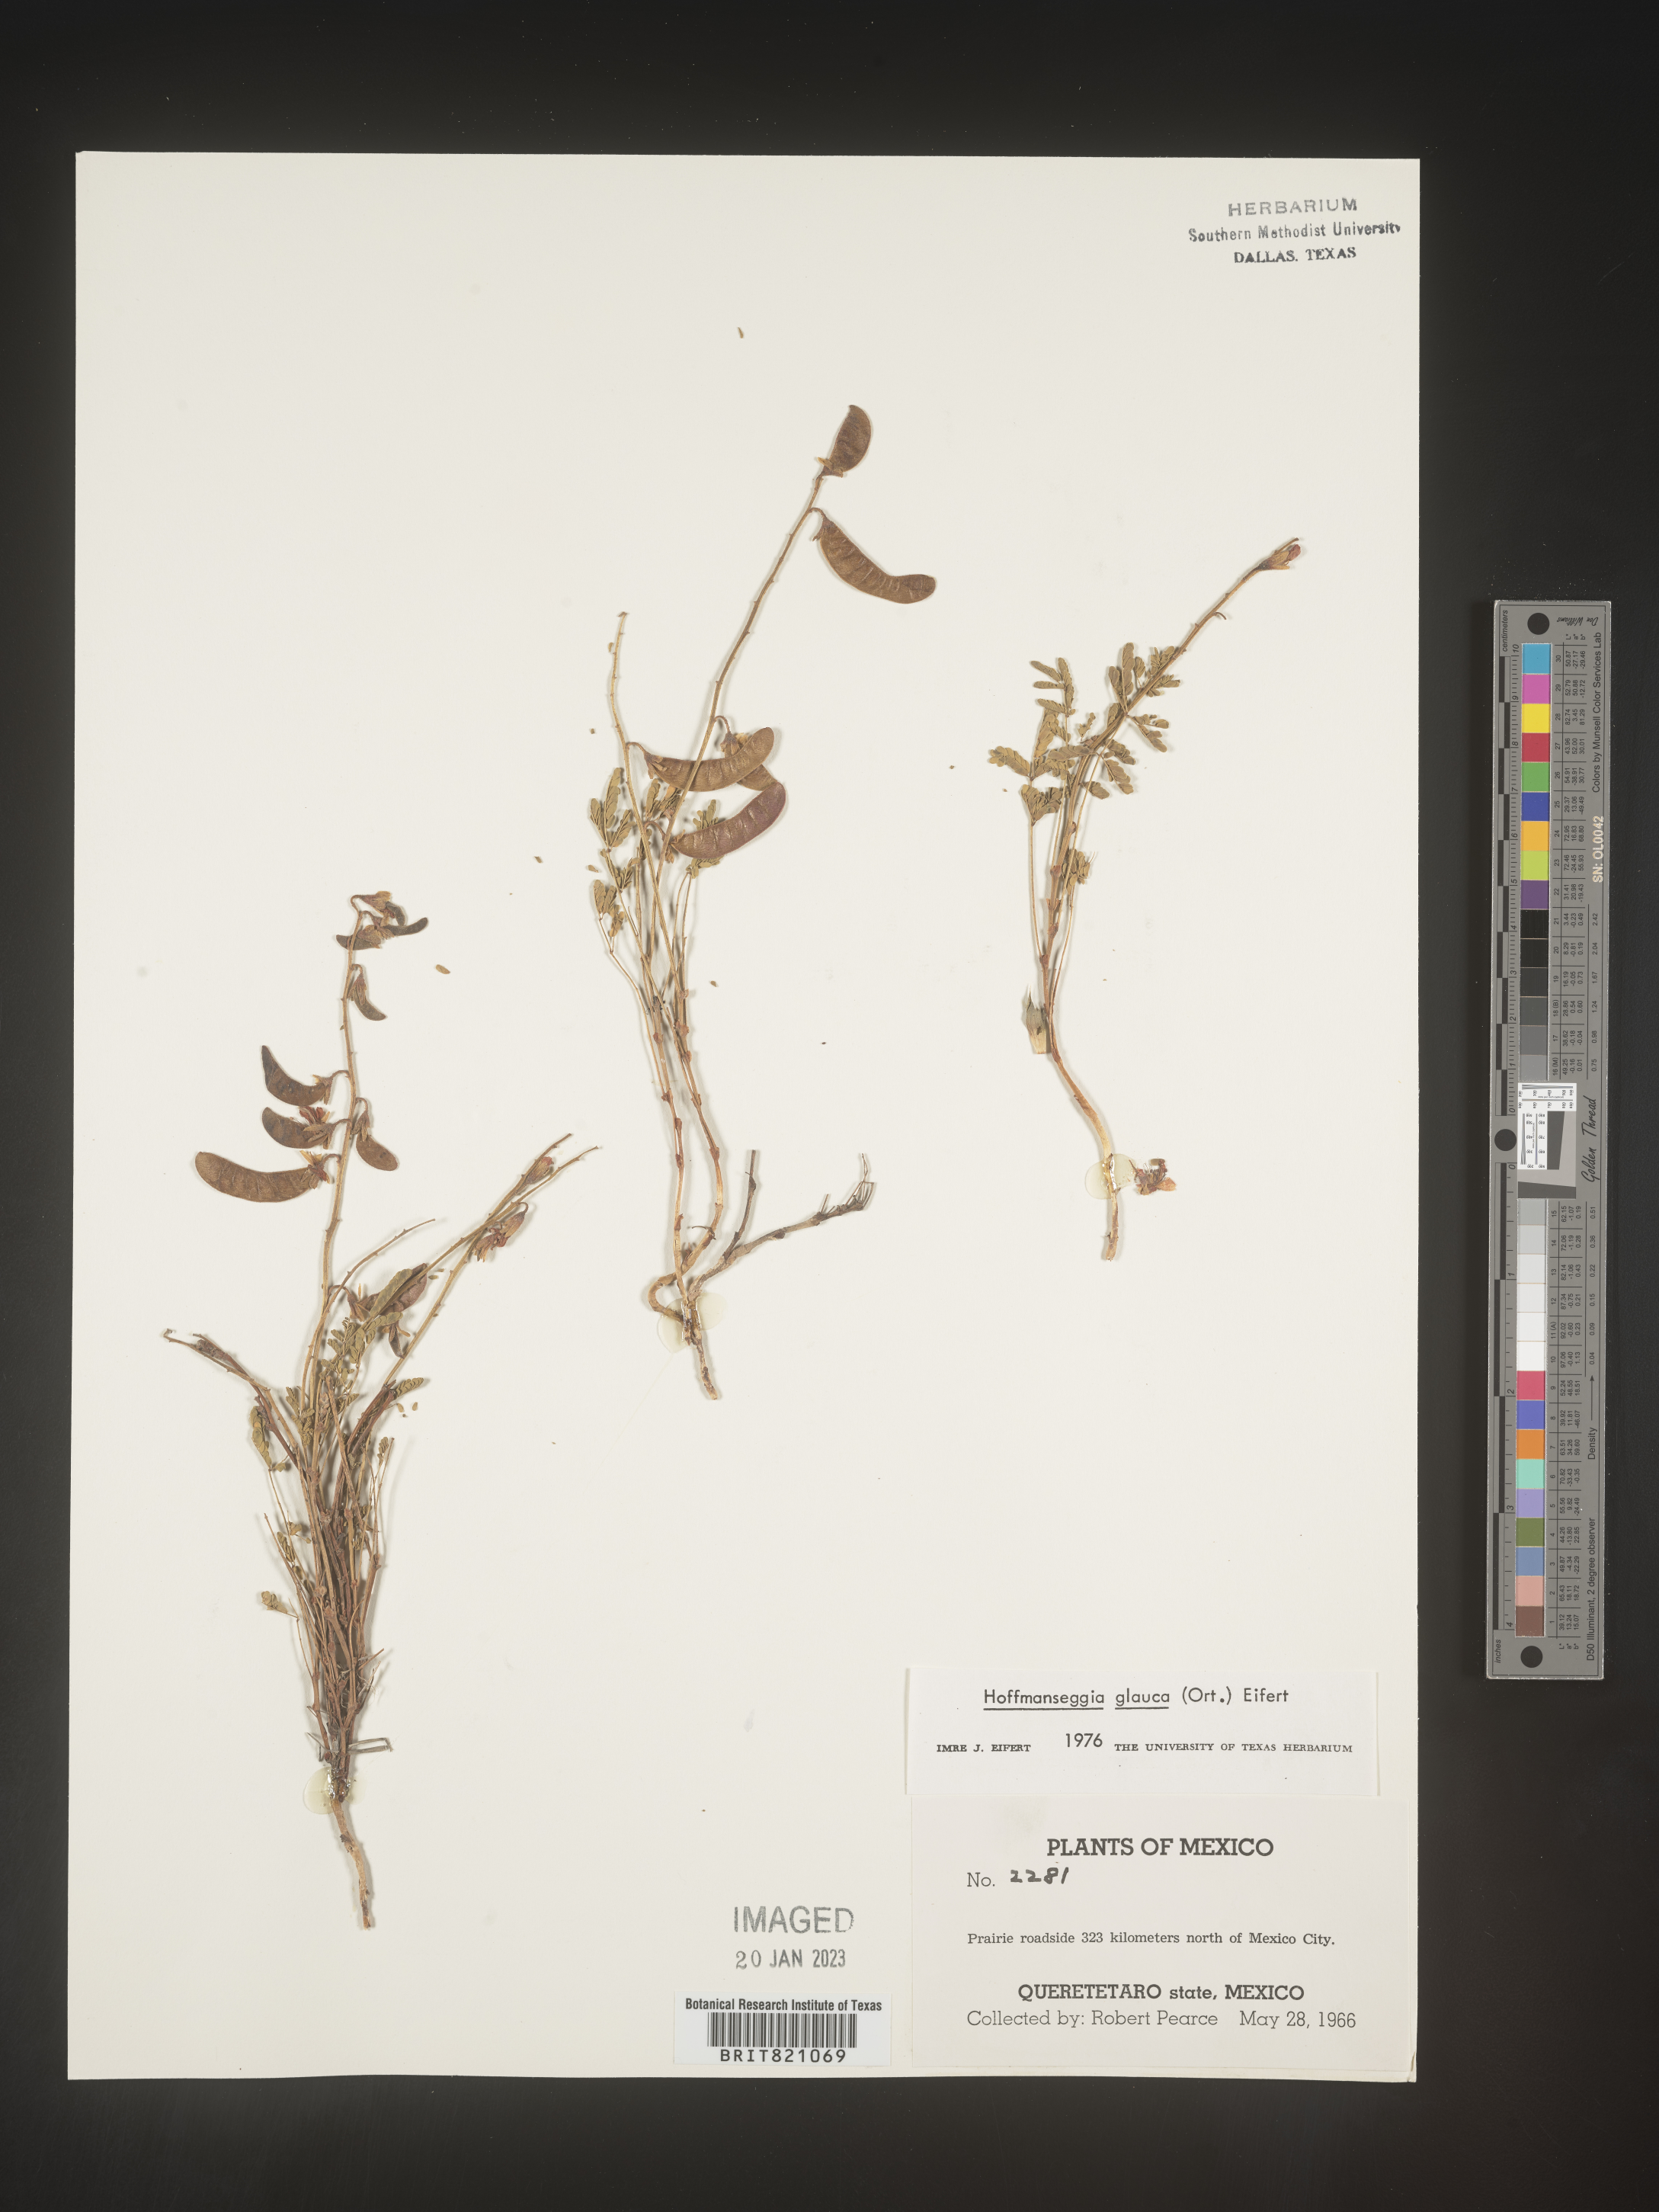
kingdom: Plantae
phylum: Tracheophyta
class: Magnoliopsida
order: Fabales
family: Fabaceae
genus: Hoffmannseggia
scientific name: Hoffmannseggia
